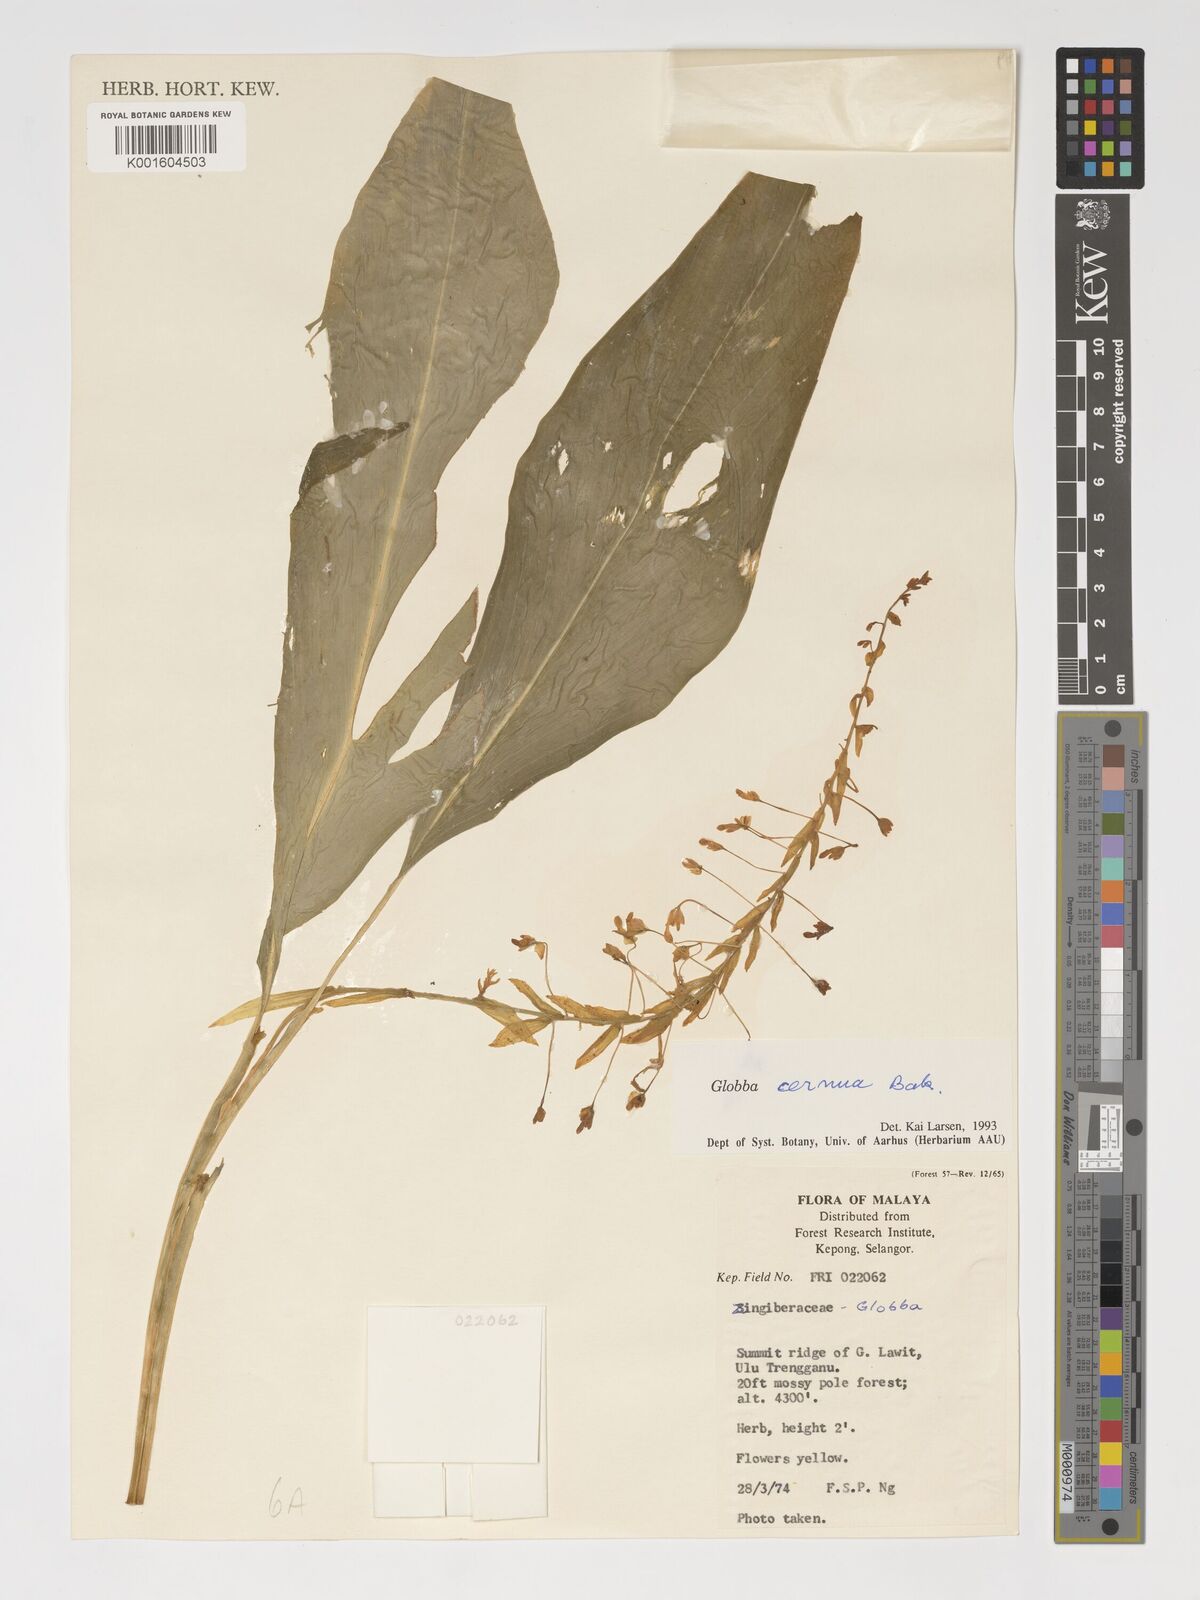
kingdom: Plantae
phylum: Tracheophyta
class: Liliopsida
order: Zingiberales
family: Zingiberaceae
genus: Globba
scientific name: Globba cernua
